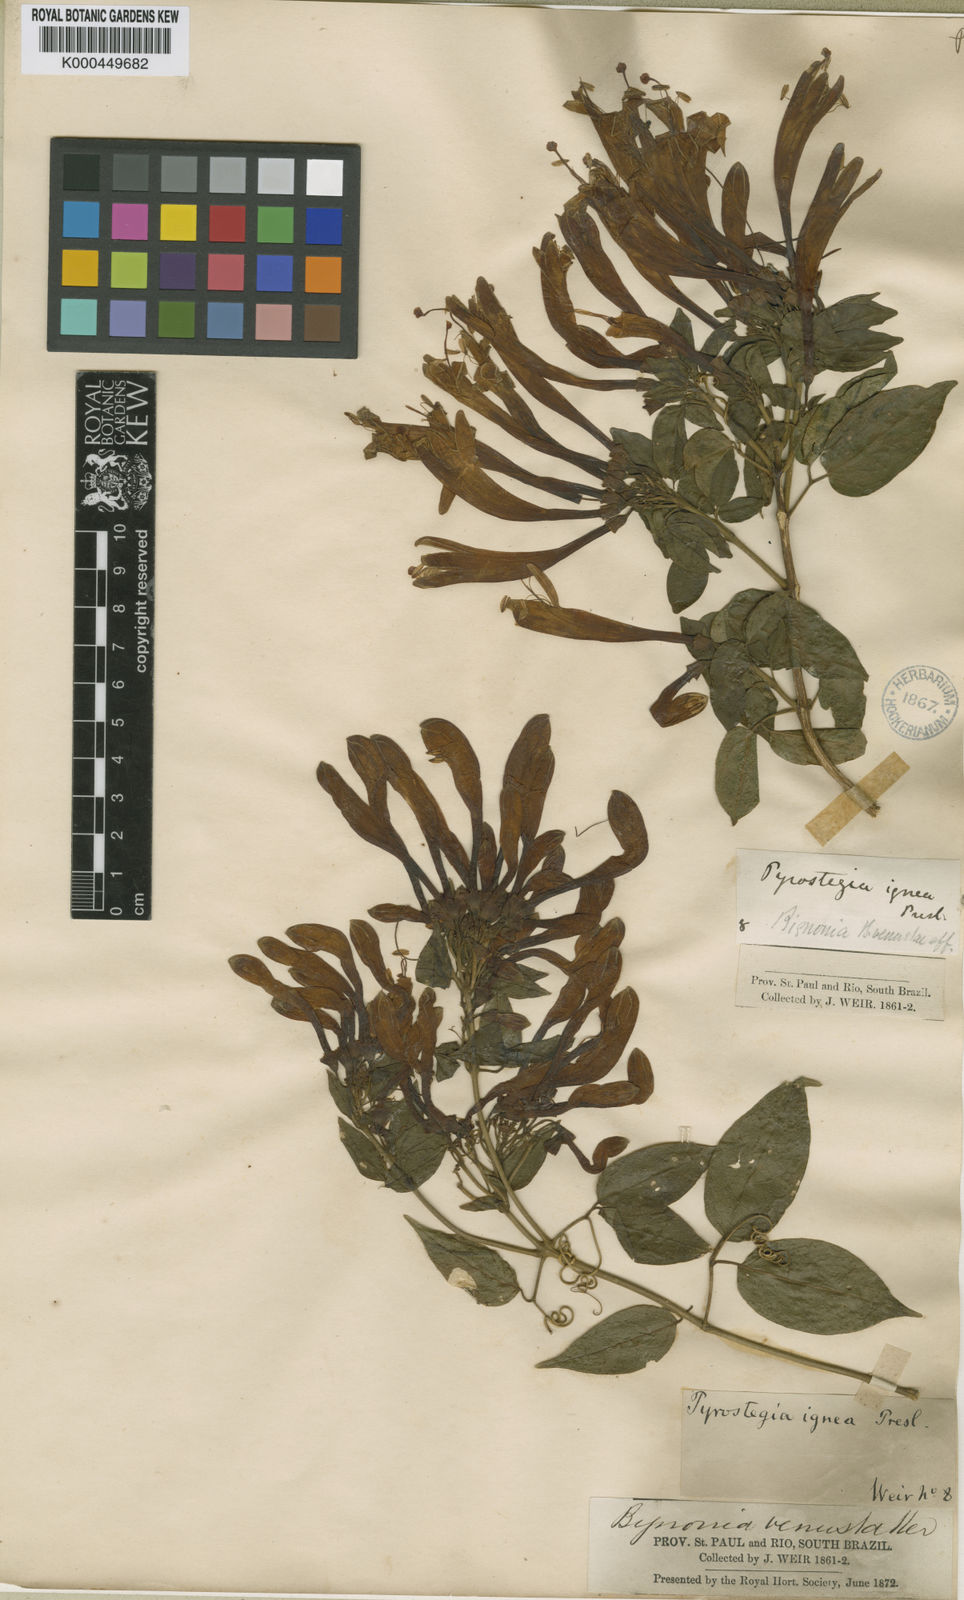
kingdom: Plantae
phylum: Tracheophyta
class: Magnoliopsida
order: Lamiales
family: Bignoniaceae
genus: Pyrostegia
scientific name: Pyrostegia venusta
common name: Flamevine
